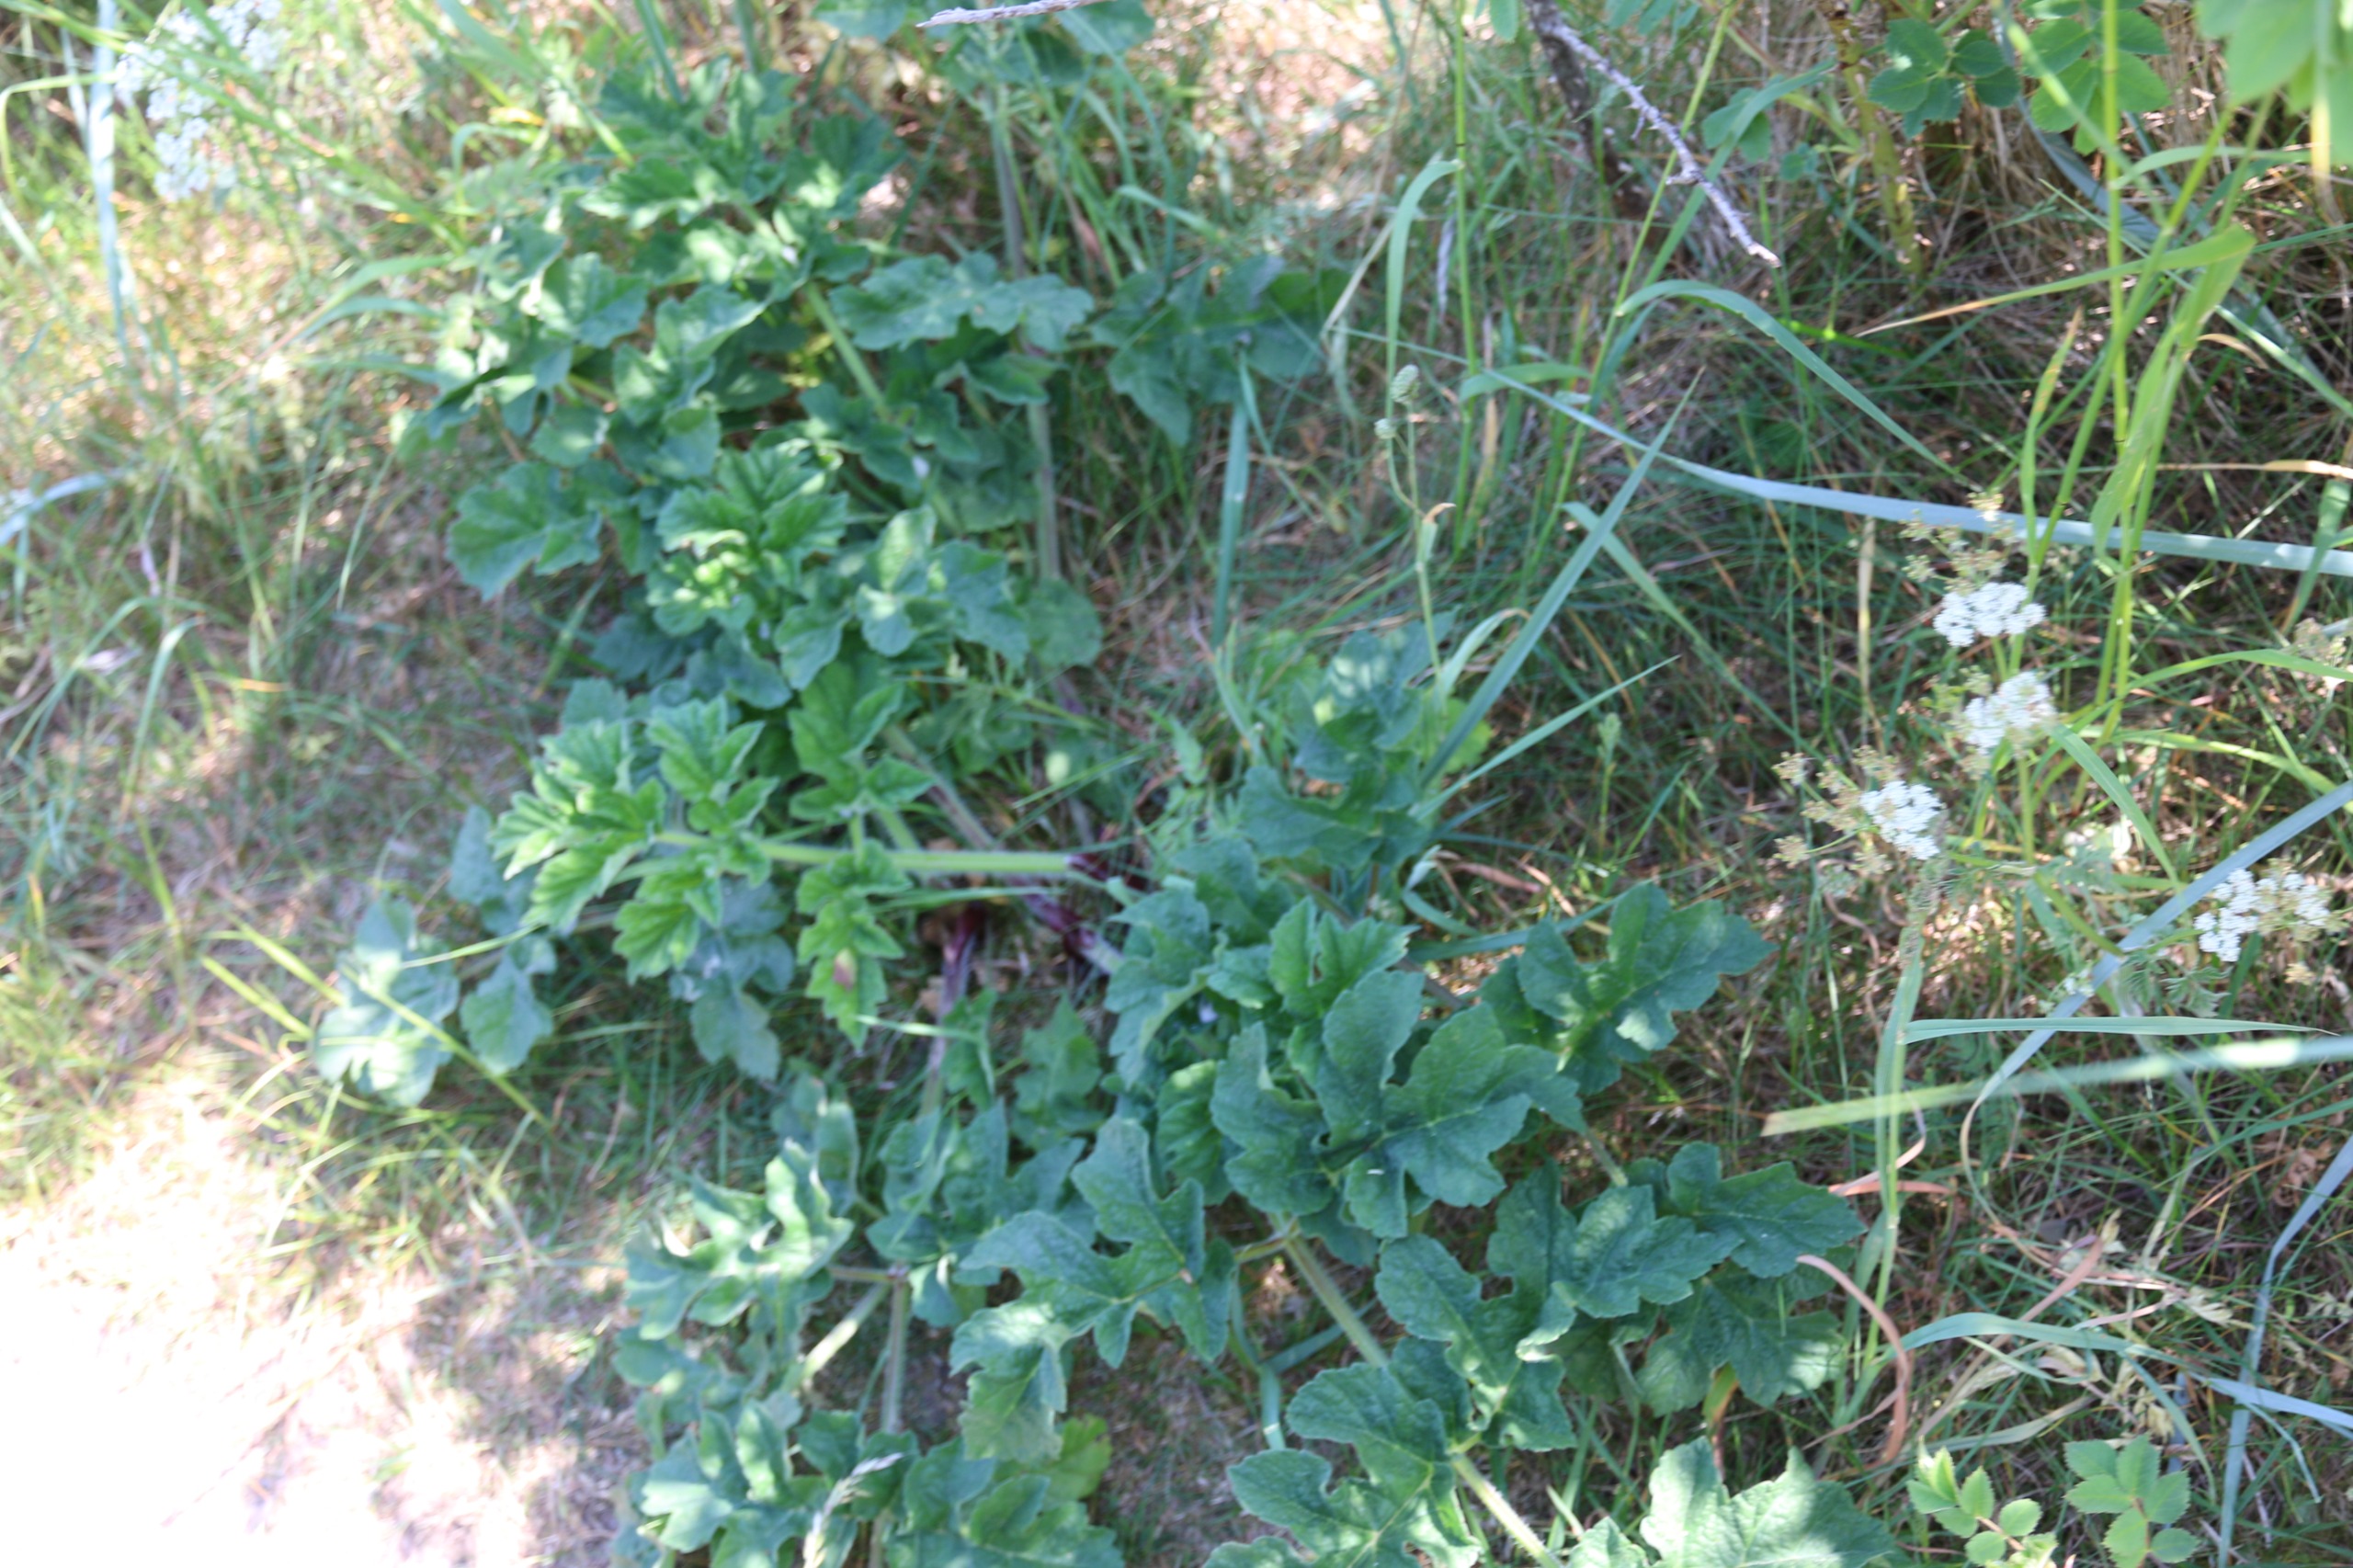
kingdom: Plantae
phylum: Tracheophyta
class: Magnoliopsida
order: Apiales
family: Apiaceae
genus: Heracleum
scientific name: Heracleum sphondylium
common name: Almindelig bjørneklo
